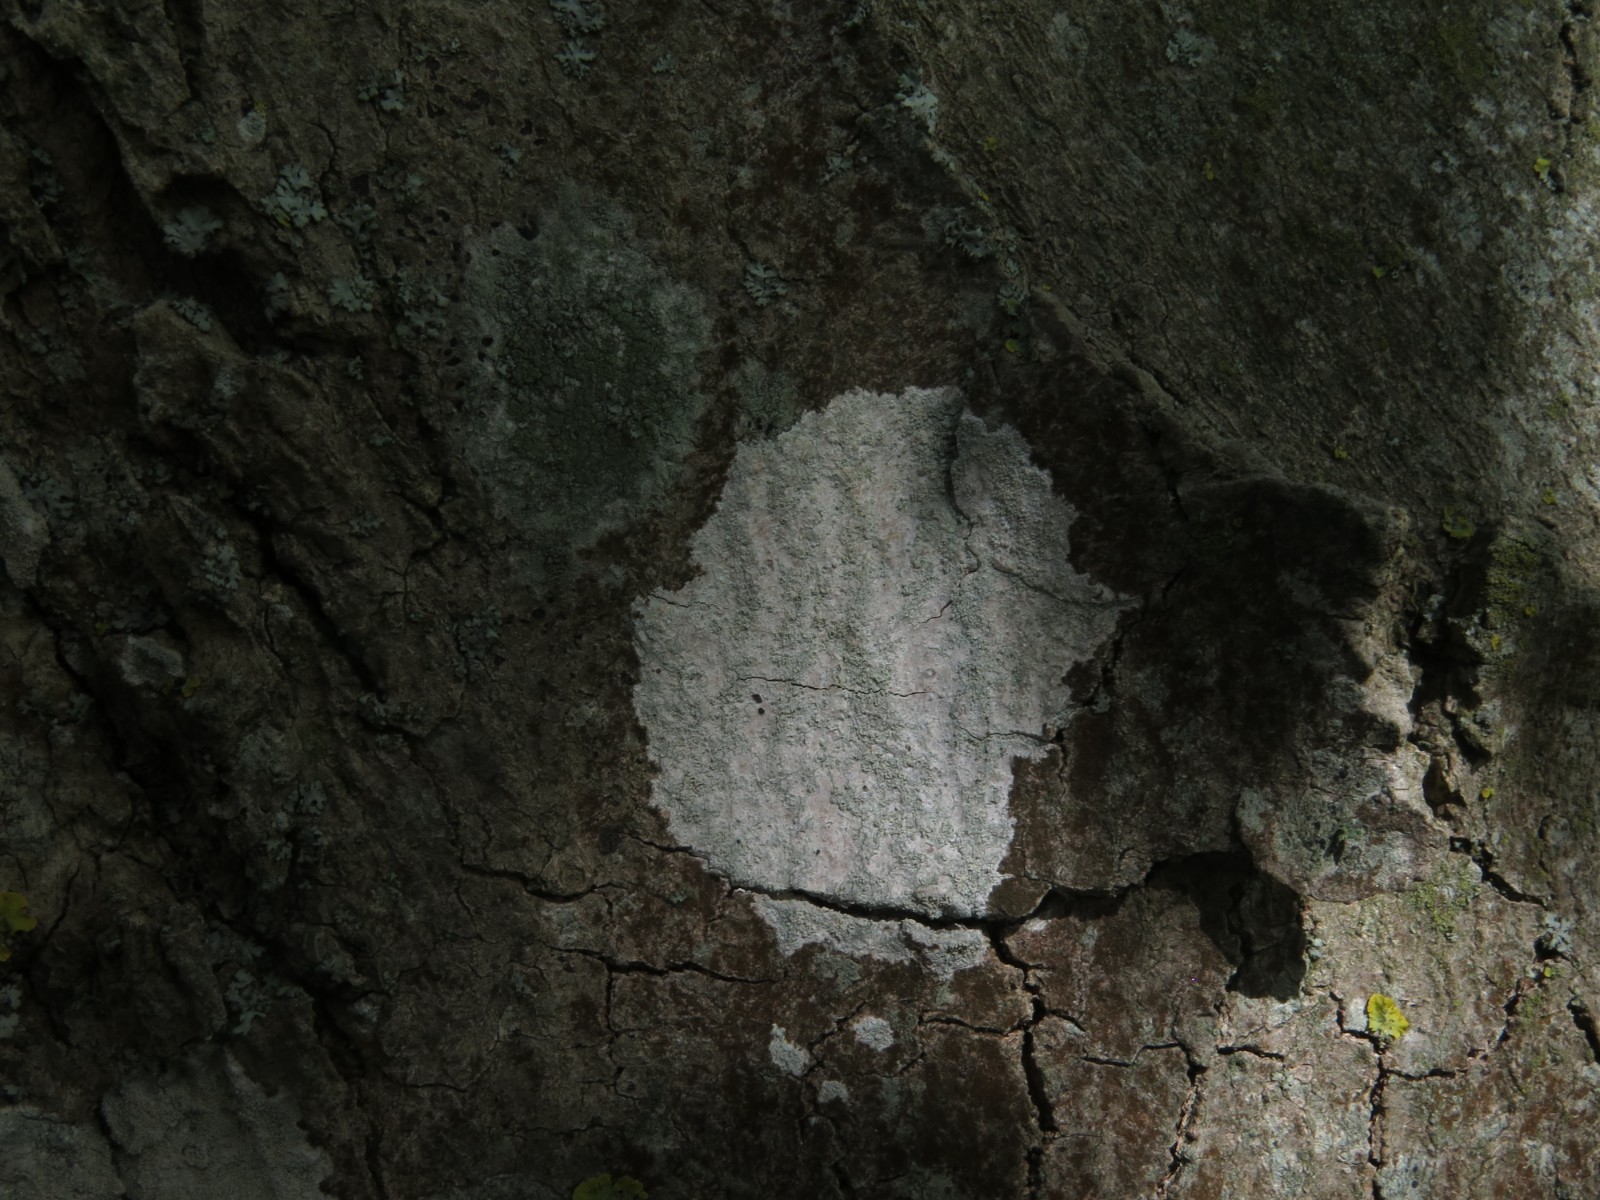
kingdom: Fungi
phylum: Ascomycota
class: Lecanoromycetes
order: Ostropales
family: Phlyctidaceae
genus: Phlyctis
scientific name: Phlyctis argena
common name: almindelig sølvlav
